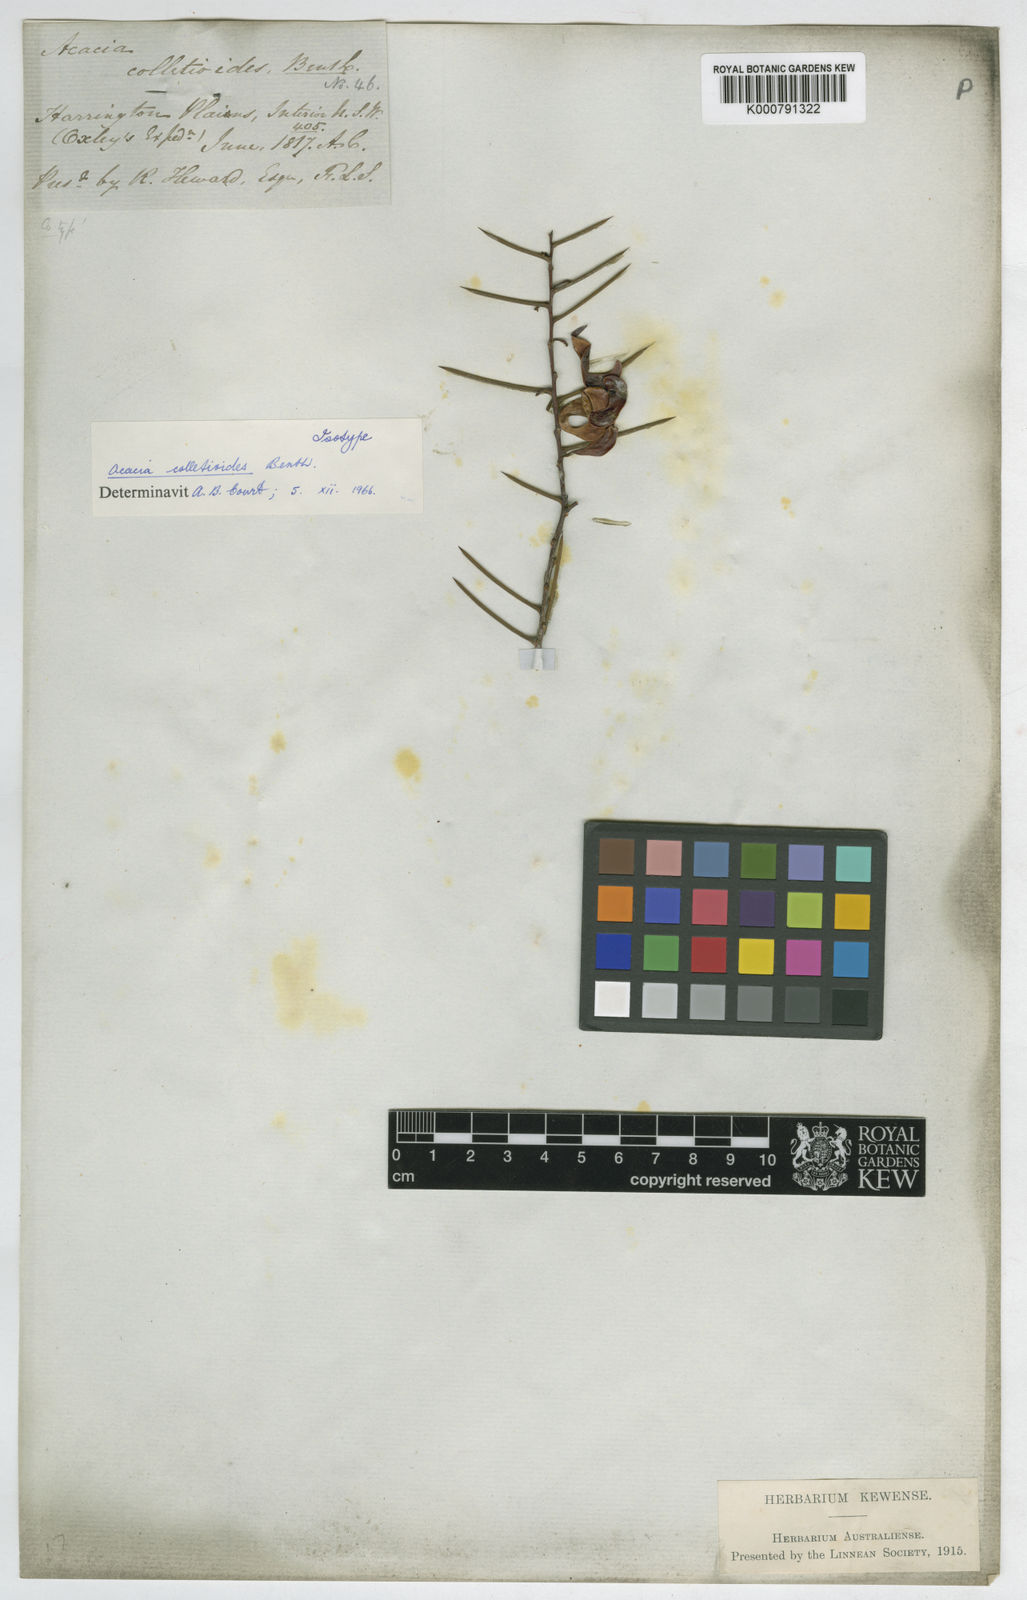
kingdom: Plantae
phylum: Tracheophyta
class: Magnoliopsida
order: Fabales
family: Fabaceae
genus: Acacia
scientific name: Acacia colletioides
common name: Spinebush
